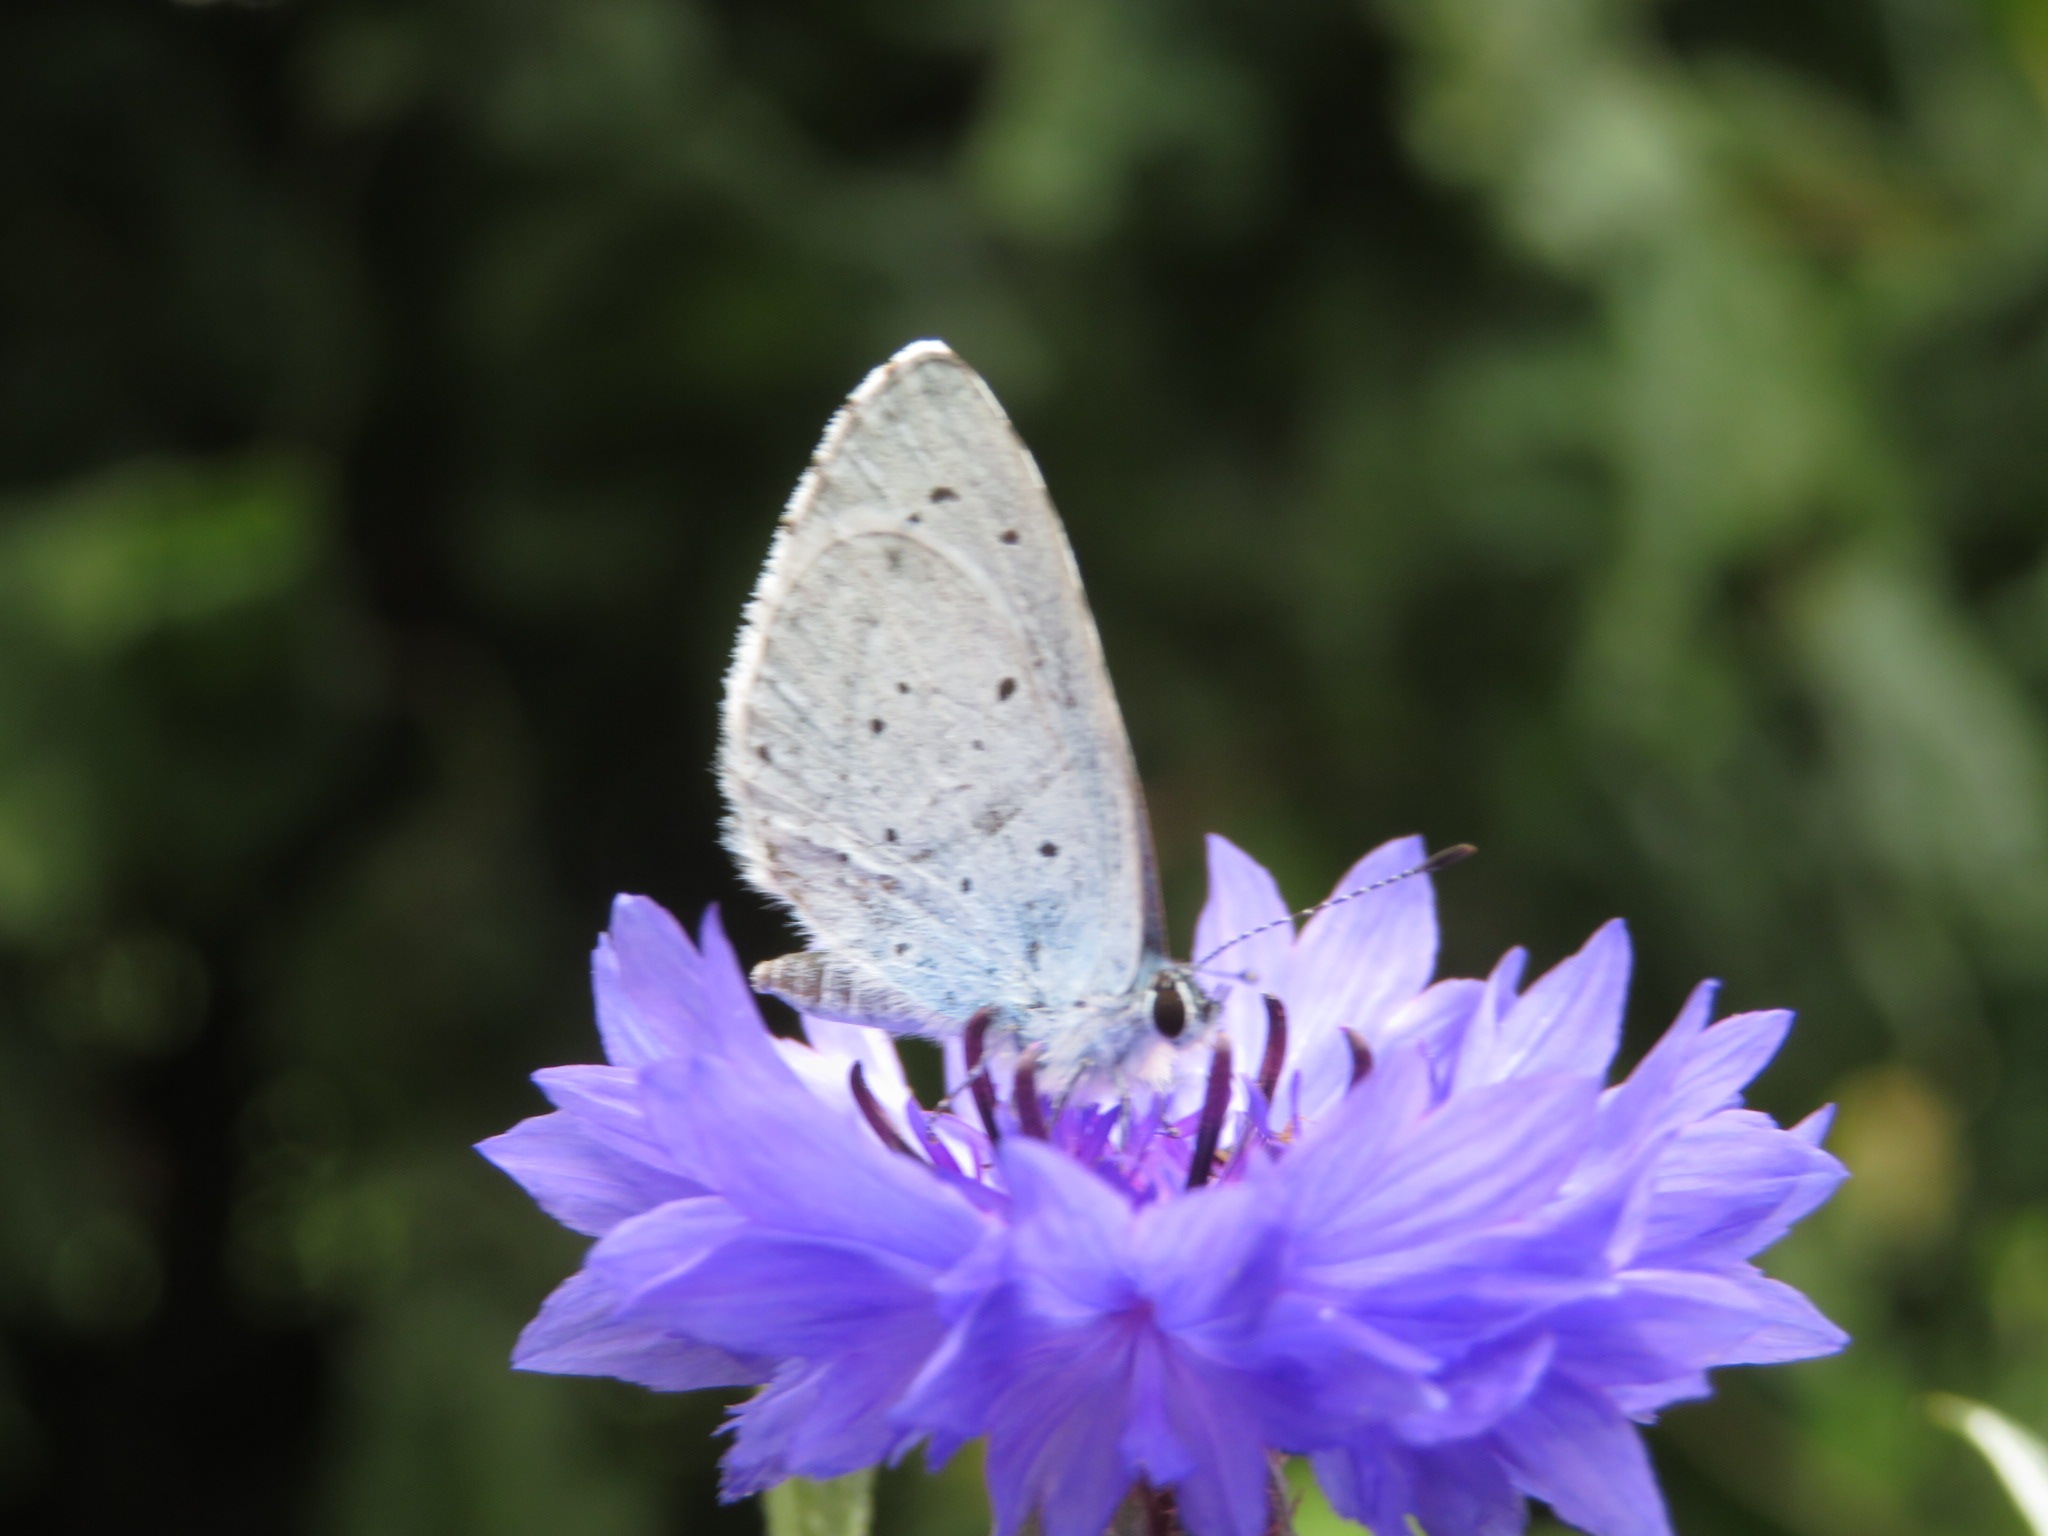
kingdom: Animalia
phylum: Arthropoda
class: Insecta
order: Lepidoptera
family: Lycaenidae
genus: Celastrina
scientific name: Celastrina argiolus
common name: Skovblåfugl
